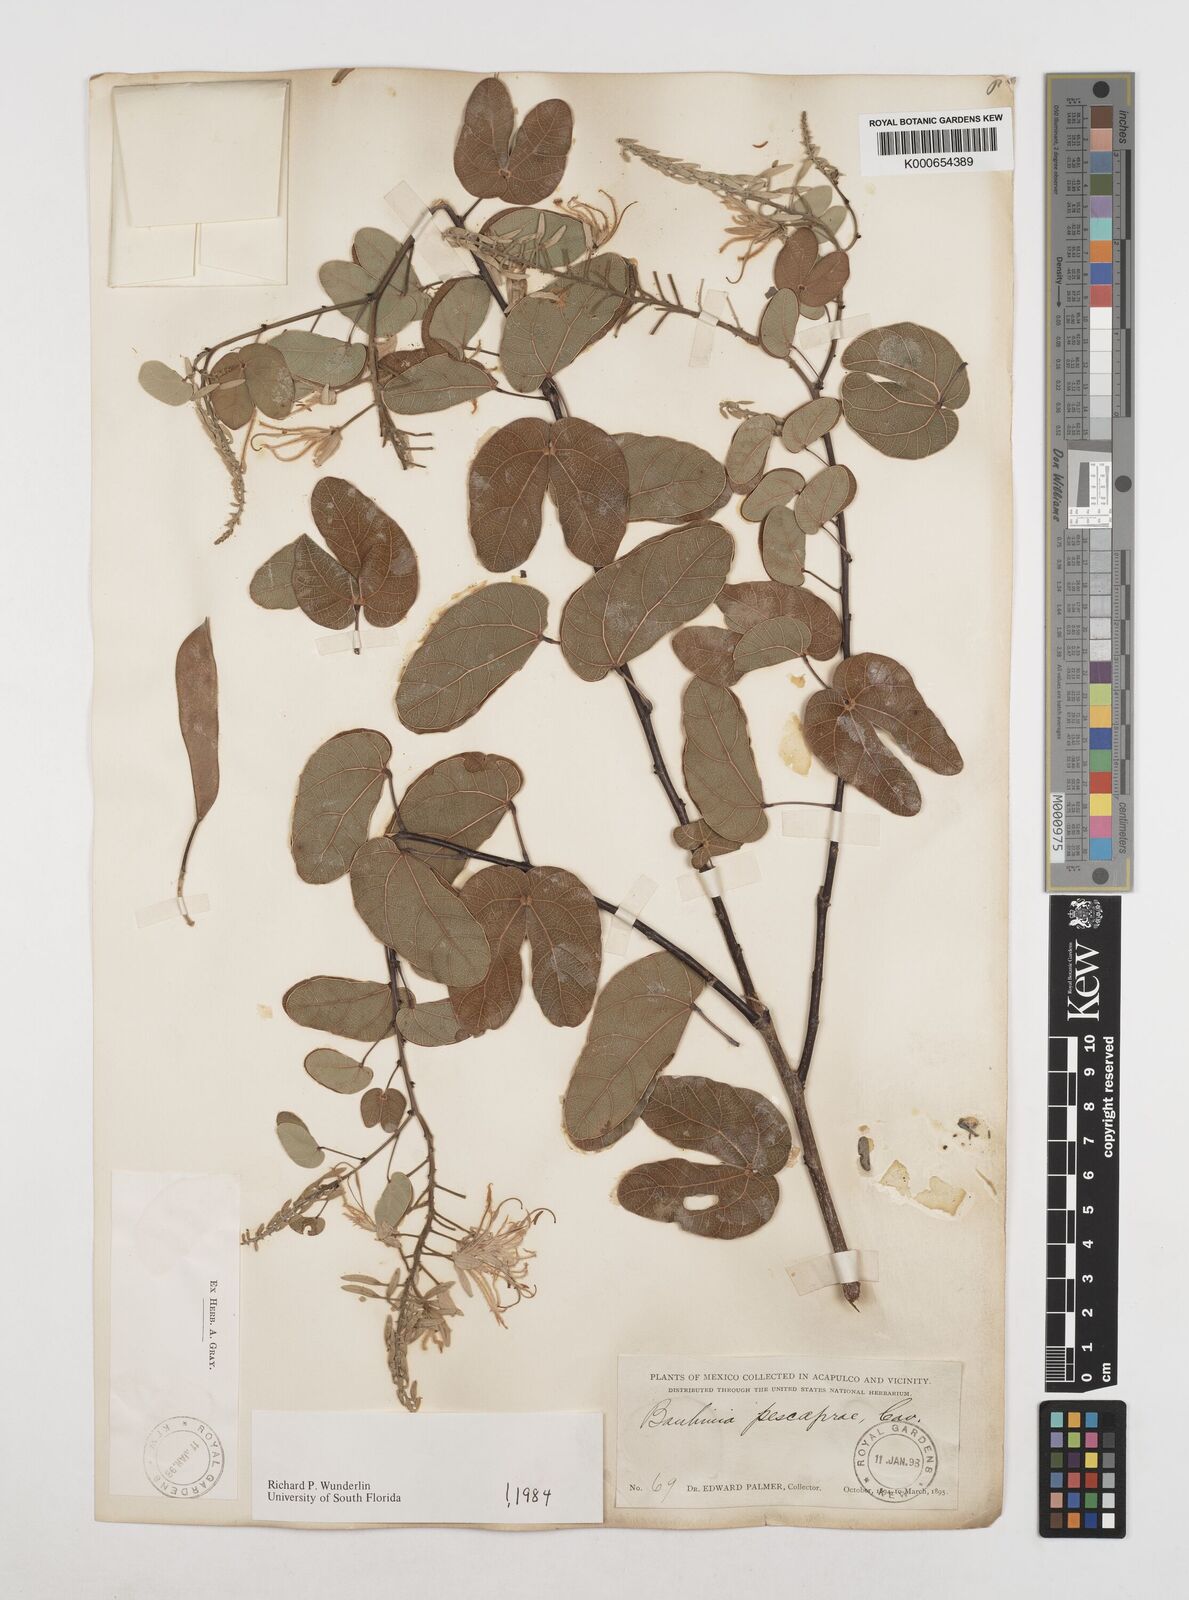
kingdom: Plantae
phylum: Tracheophyta
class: Magnoliopsida
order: Fabales
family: Fabaceae
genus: Bauhinia
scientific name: Bauhinia pes-caprae
